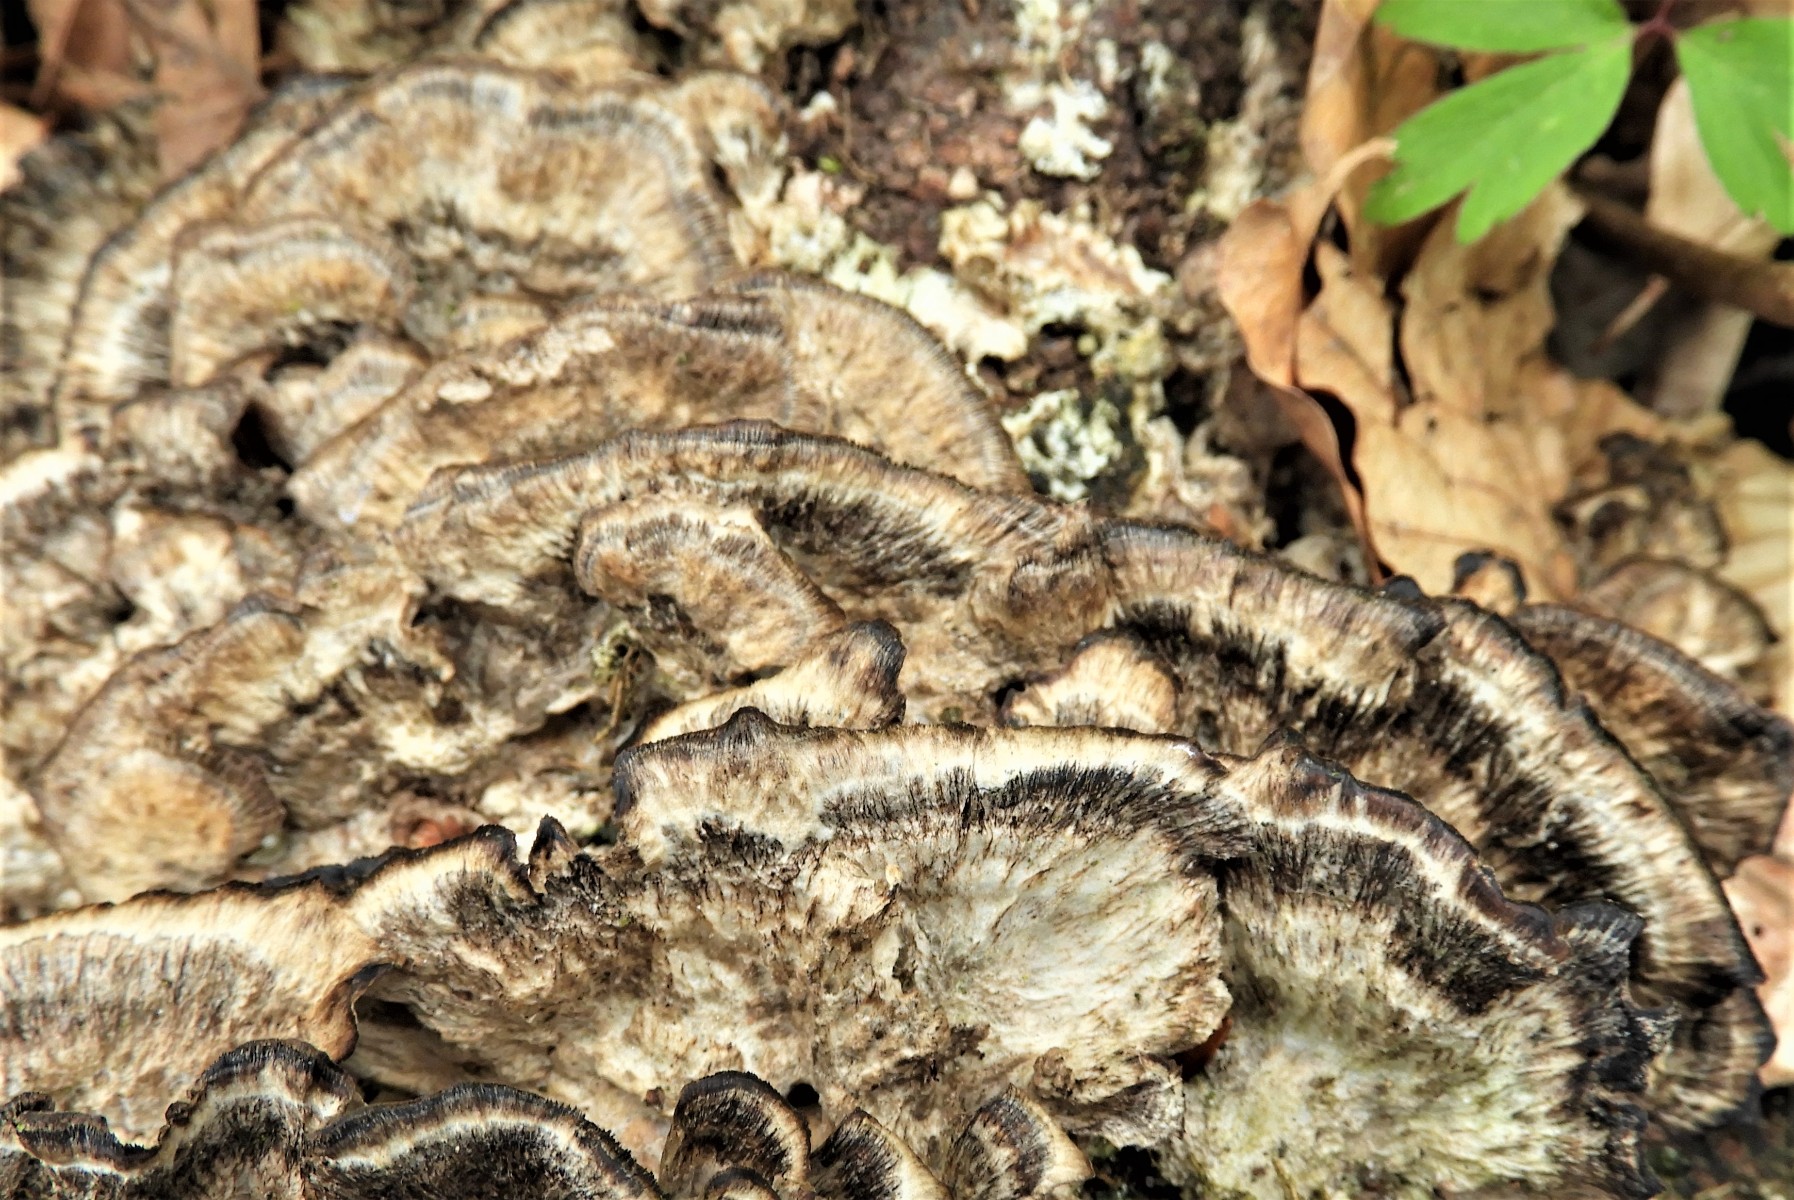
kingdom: Fungi
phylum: Basidiomycota
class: Agaricomycetes
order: Polyporales
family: Phanerochaetaceae
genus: Bjerkandera
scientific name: Bjerkandera adusta
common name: sveden sodporesvamp
